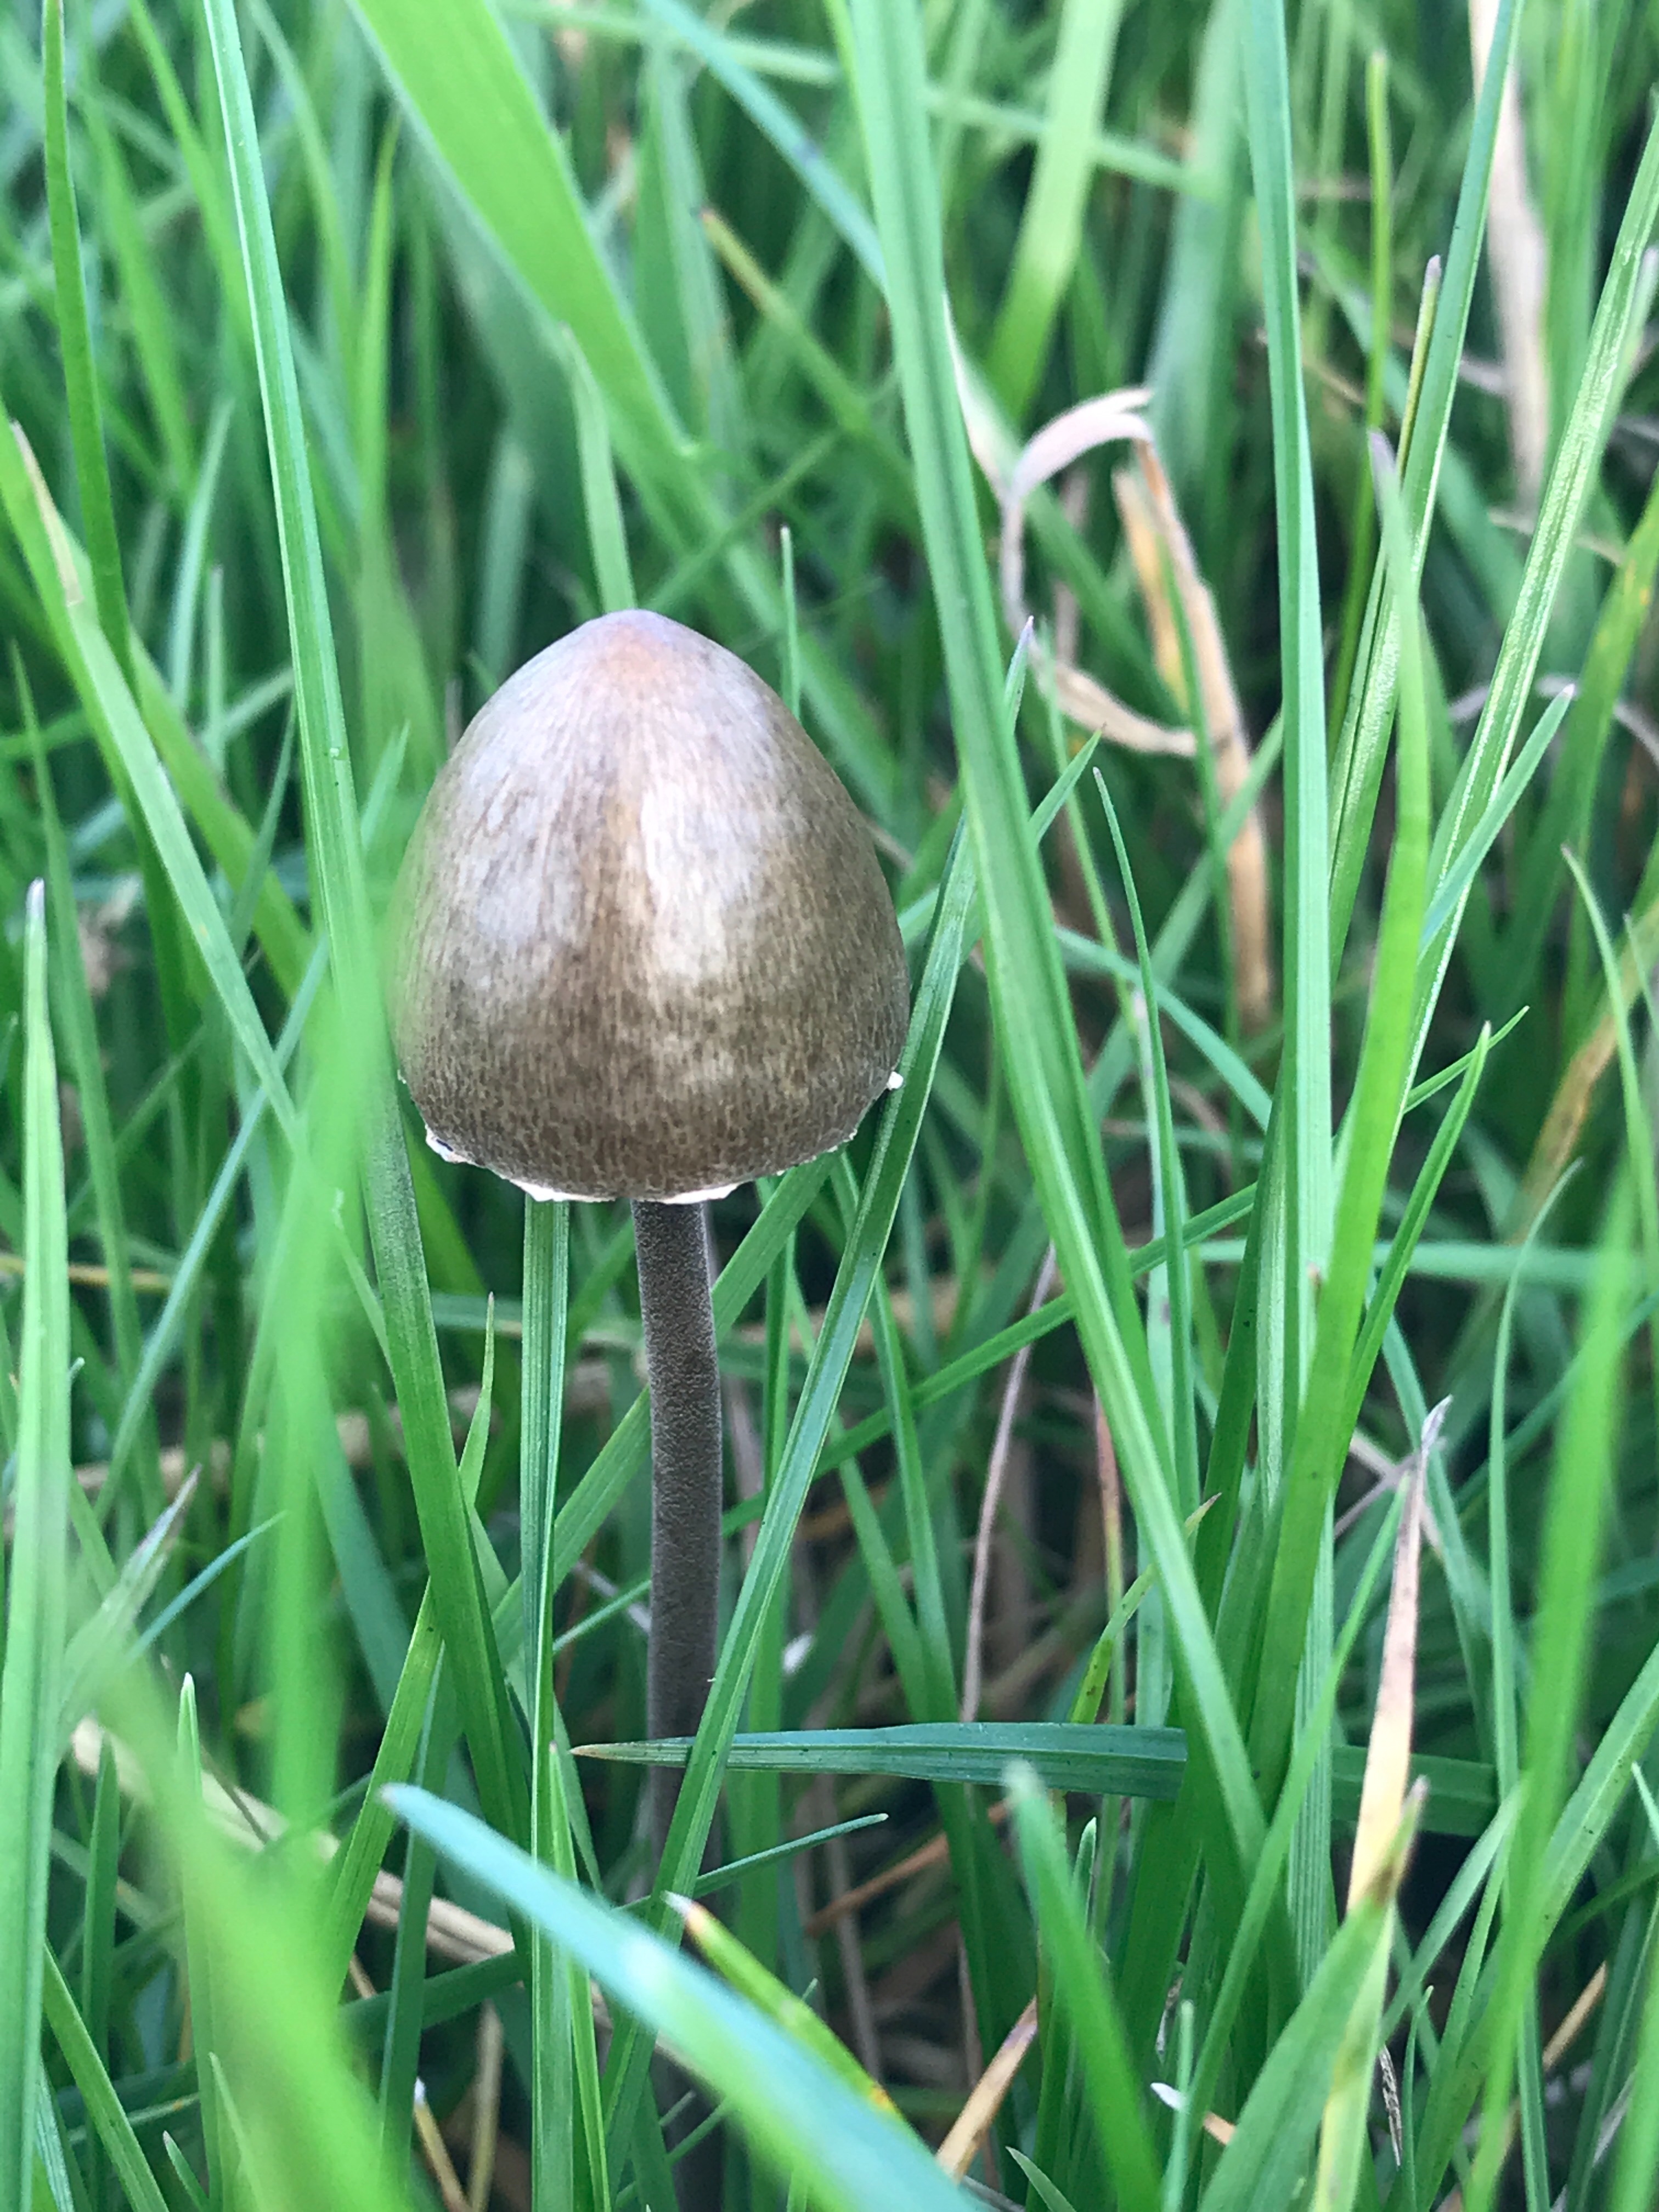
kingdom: Fungi
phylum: Basidiomycota
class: Agaricomycetes
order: Agaricales
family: Bolbitiaceae
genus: Panaeolus
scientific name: Panaeolus papilionaceus
